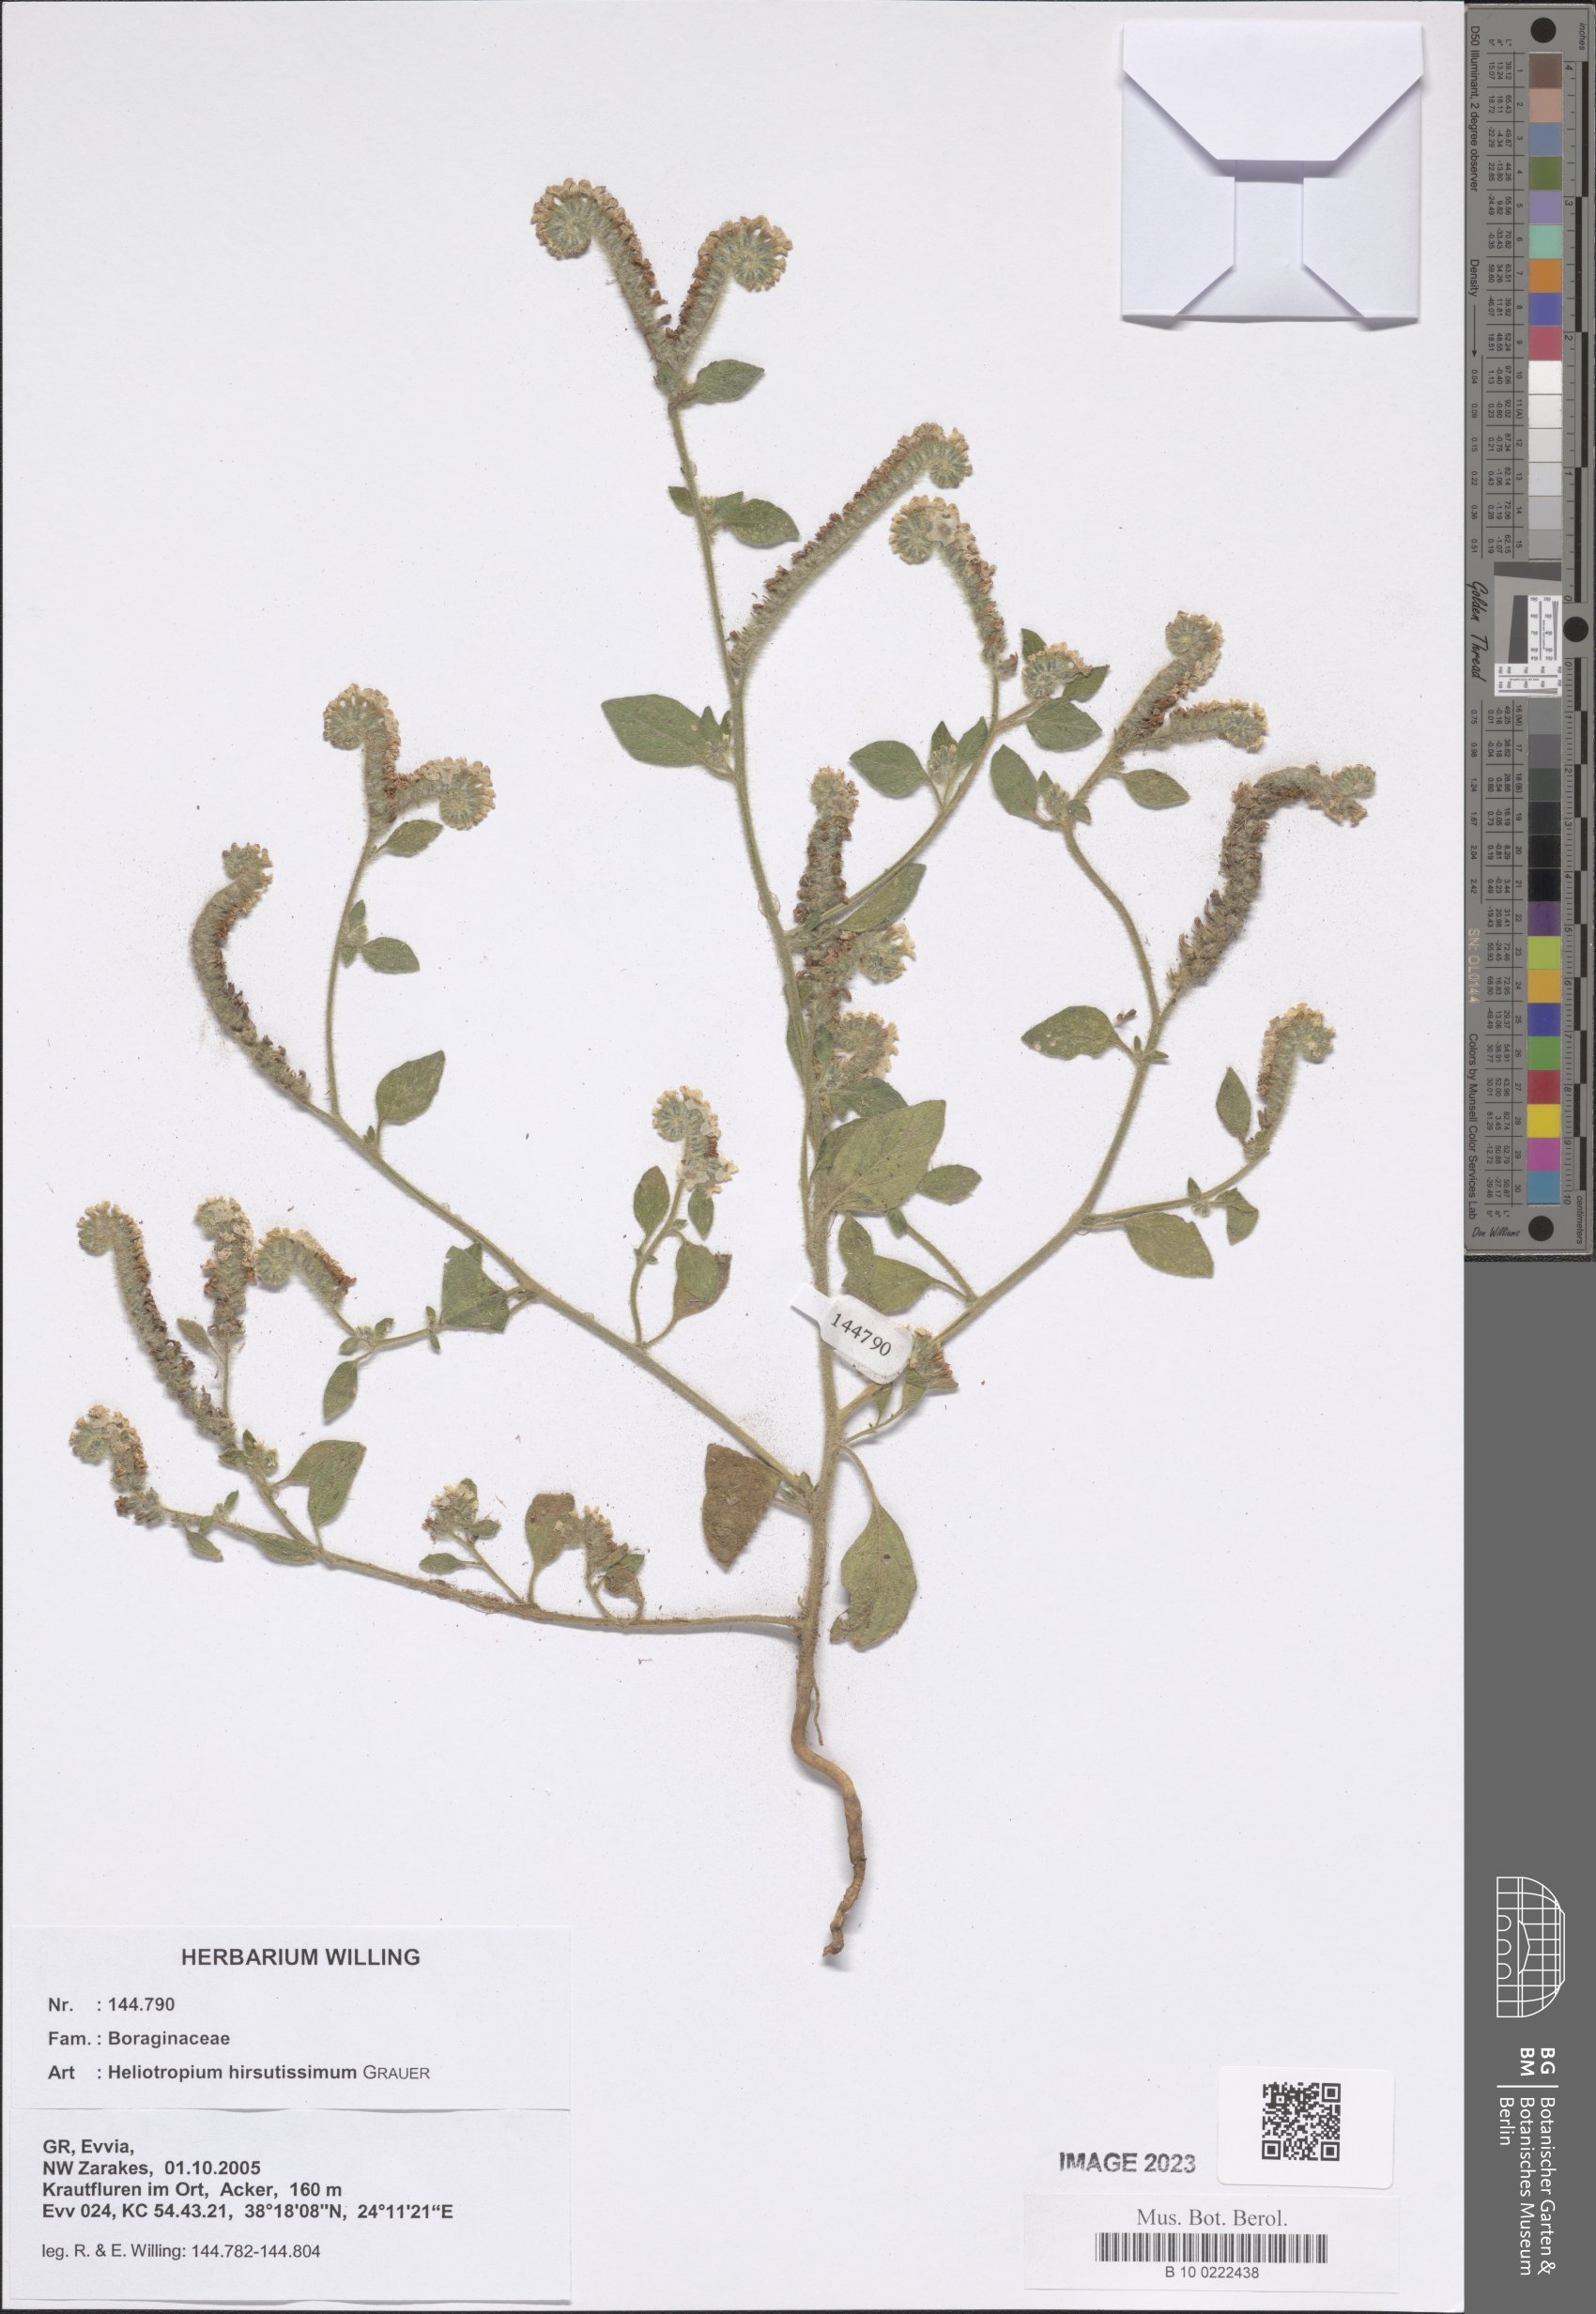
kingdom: Plantae
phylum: Tracheophyta
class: Magnoliopsida
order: Boraginales
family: Heliotropiaceae
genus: Heliotropium
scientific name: Heliotropium hirsutissimum
